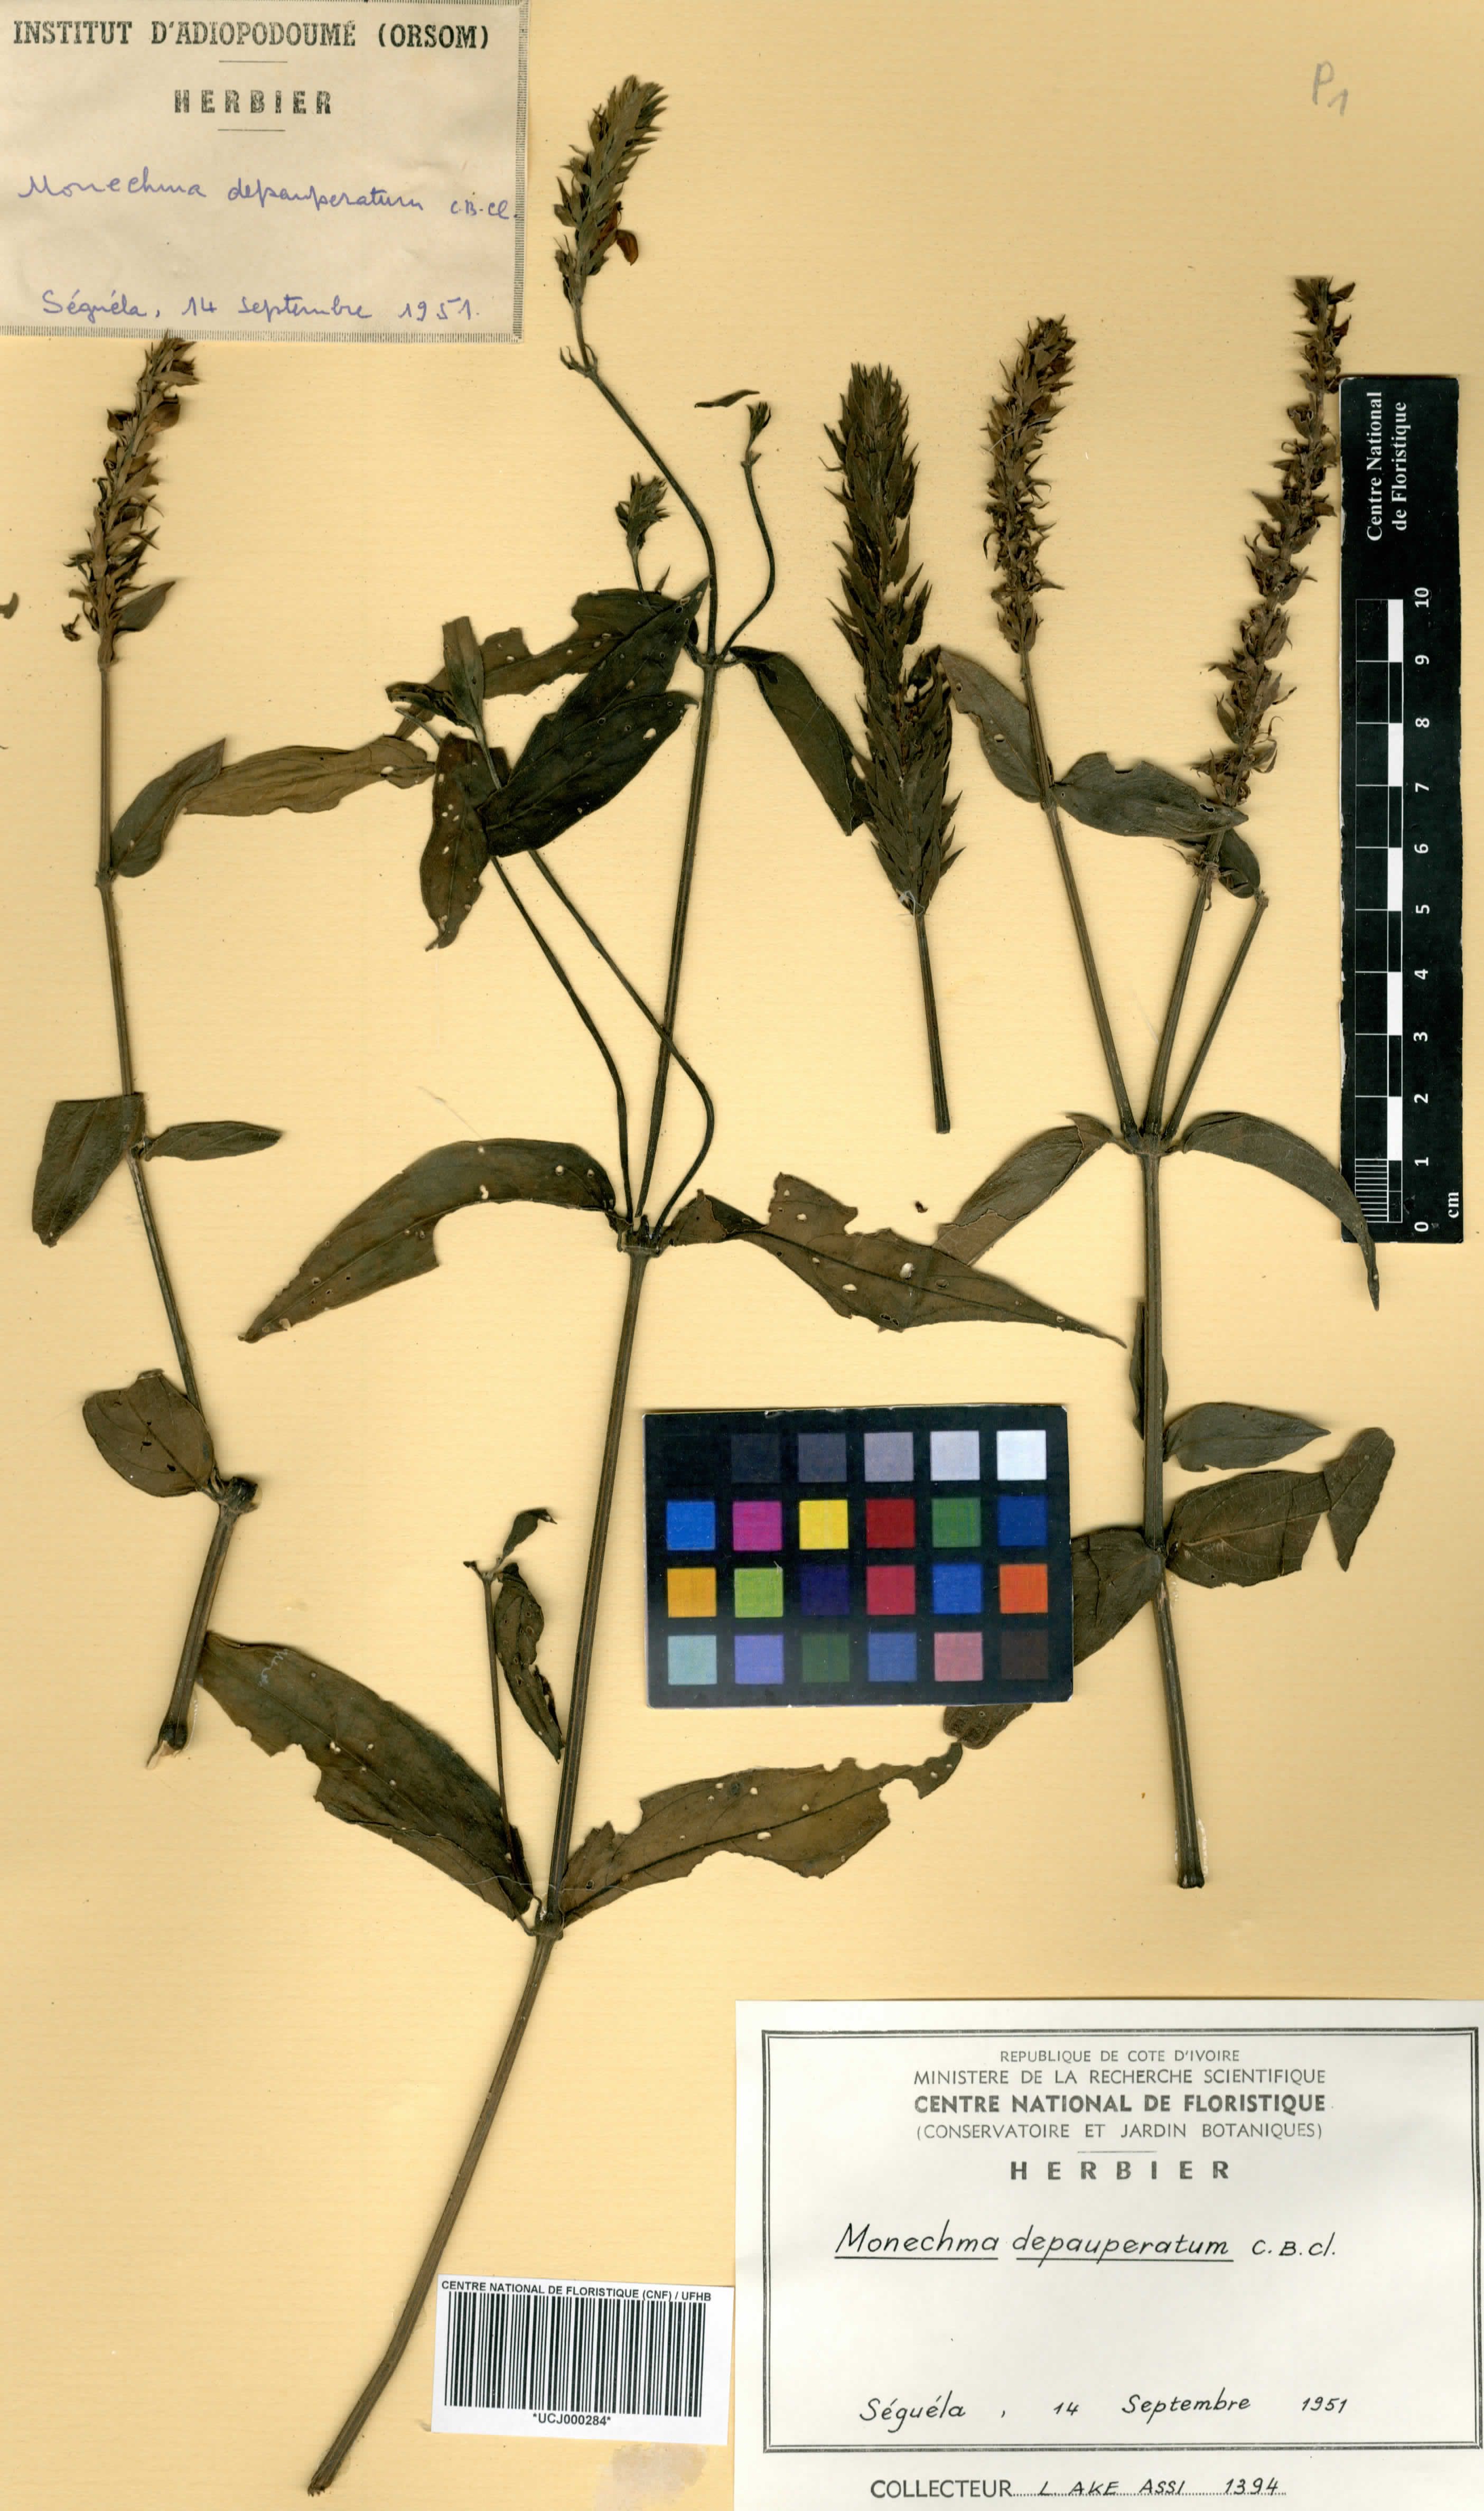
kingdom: Plantae
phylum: Tracheophyta
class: Magnoliopsida
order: Lamiales
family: Acanthaceae
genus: Monechma
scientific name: Monechma depauperatum
